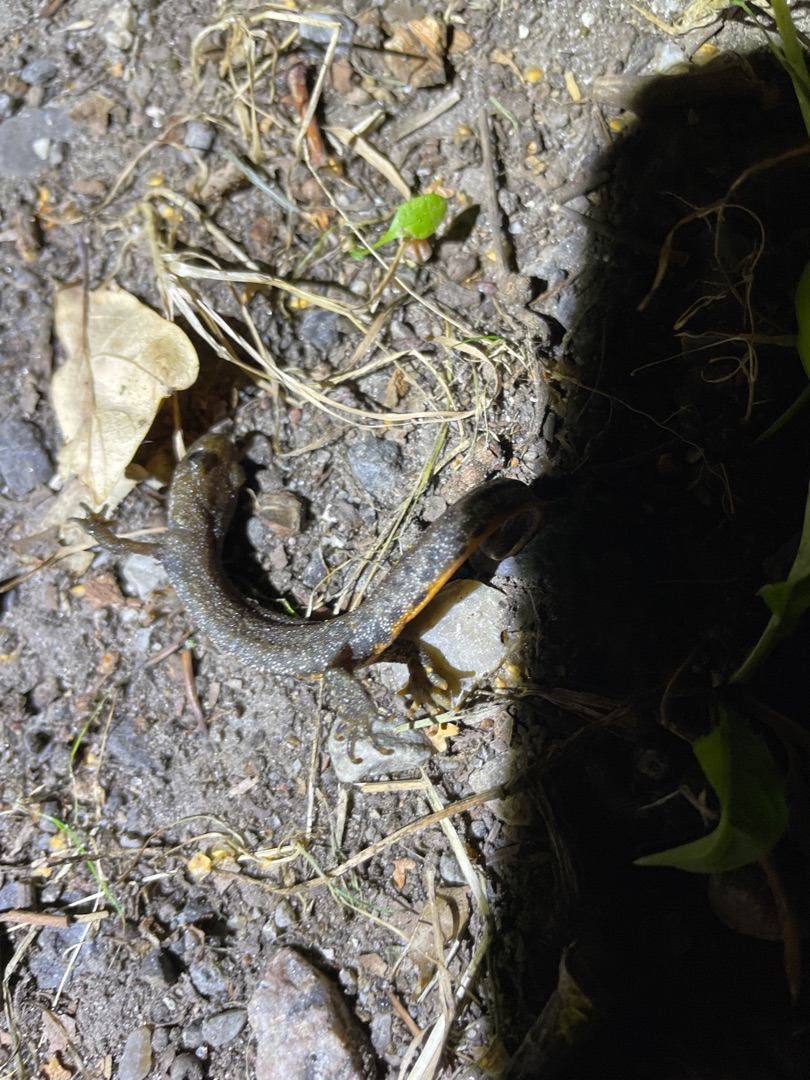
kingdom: Animalia
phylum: Chordata
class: Amphibia
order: Caudata
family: Salamandridae
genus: Triturus
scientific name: Triturus cristatus
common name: Stor vandsalamander
